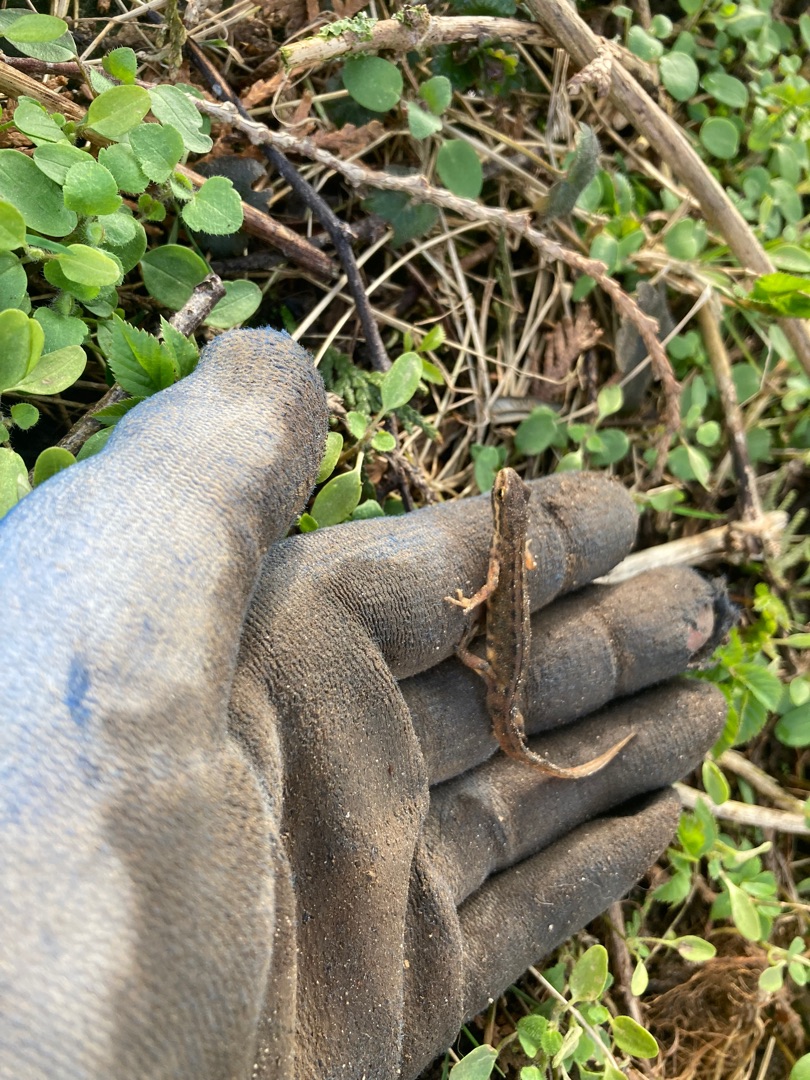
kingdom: Animalia
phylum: Chordata
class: Amphibia
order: Caudata
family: Salamandridae
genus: Lissotriton
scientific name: Lissotriton vulgaris
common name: Lille vandsalamander
